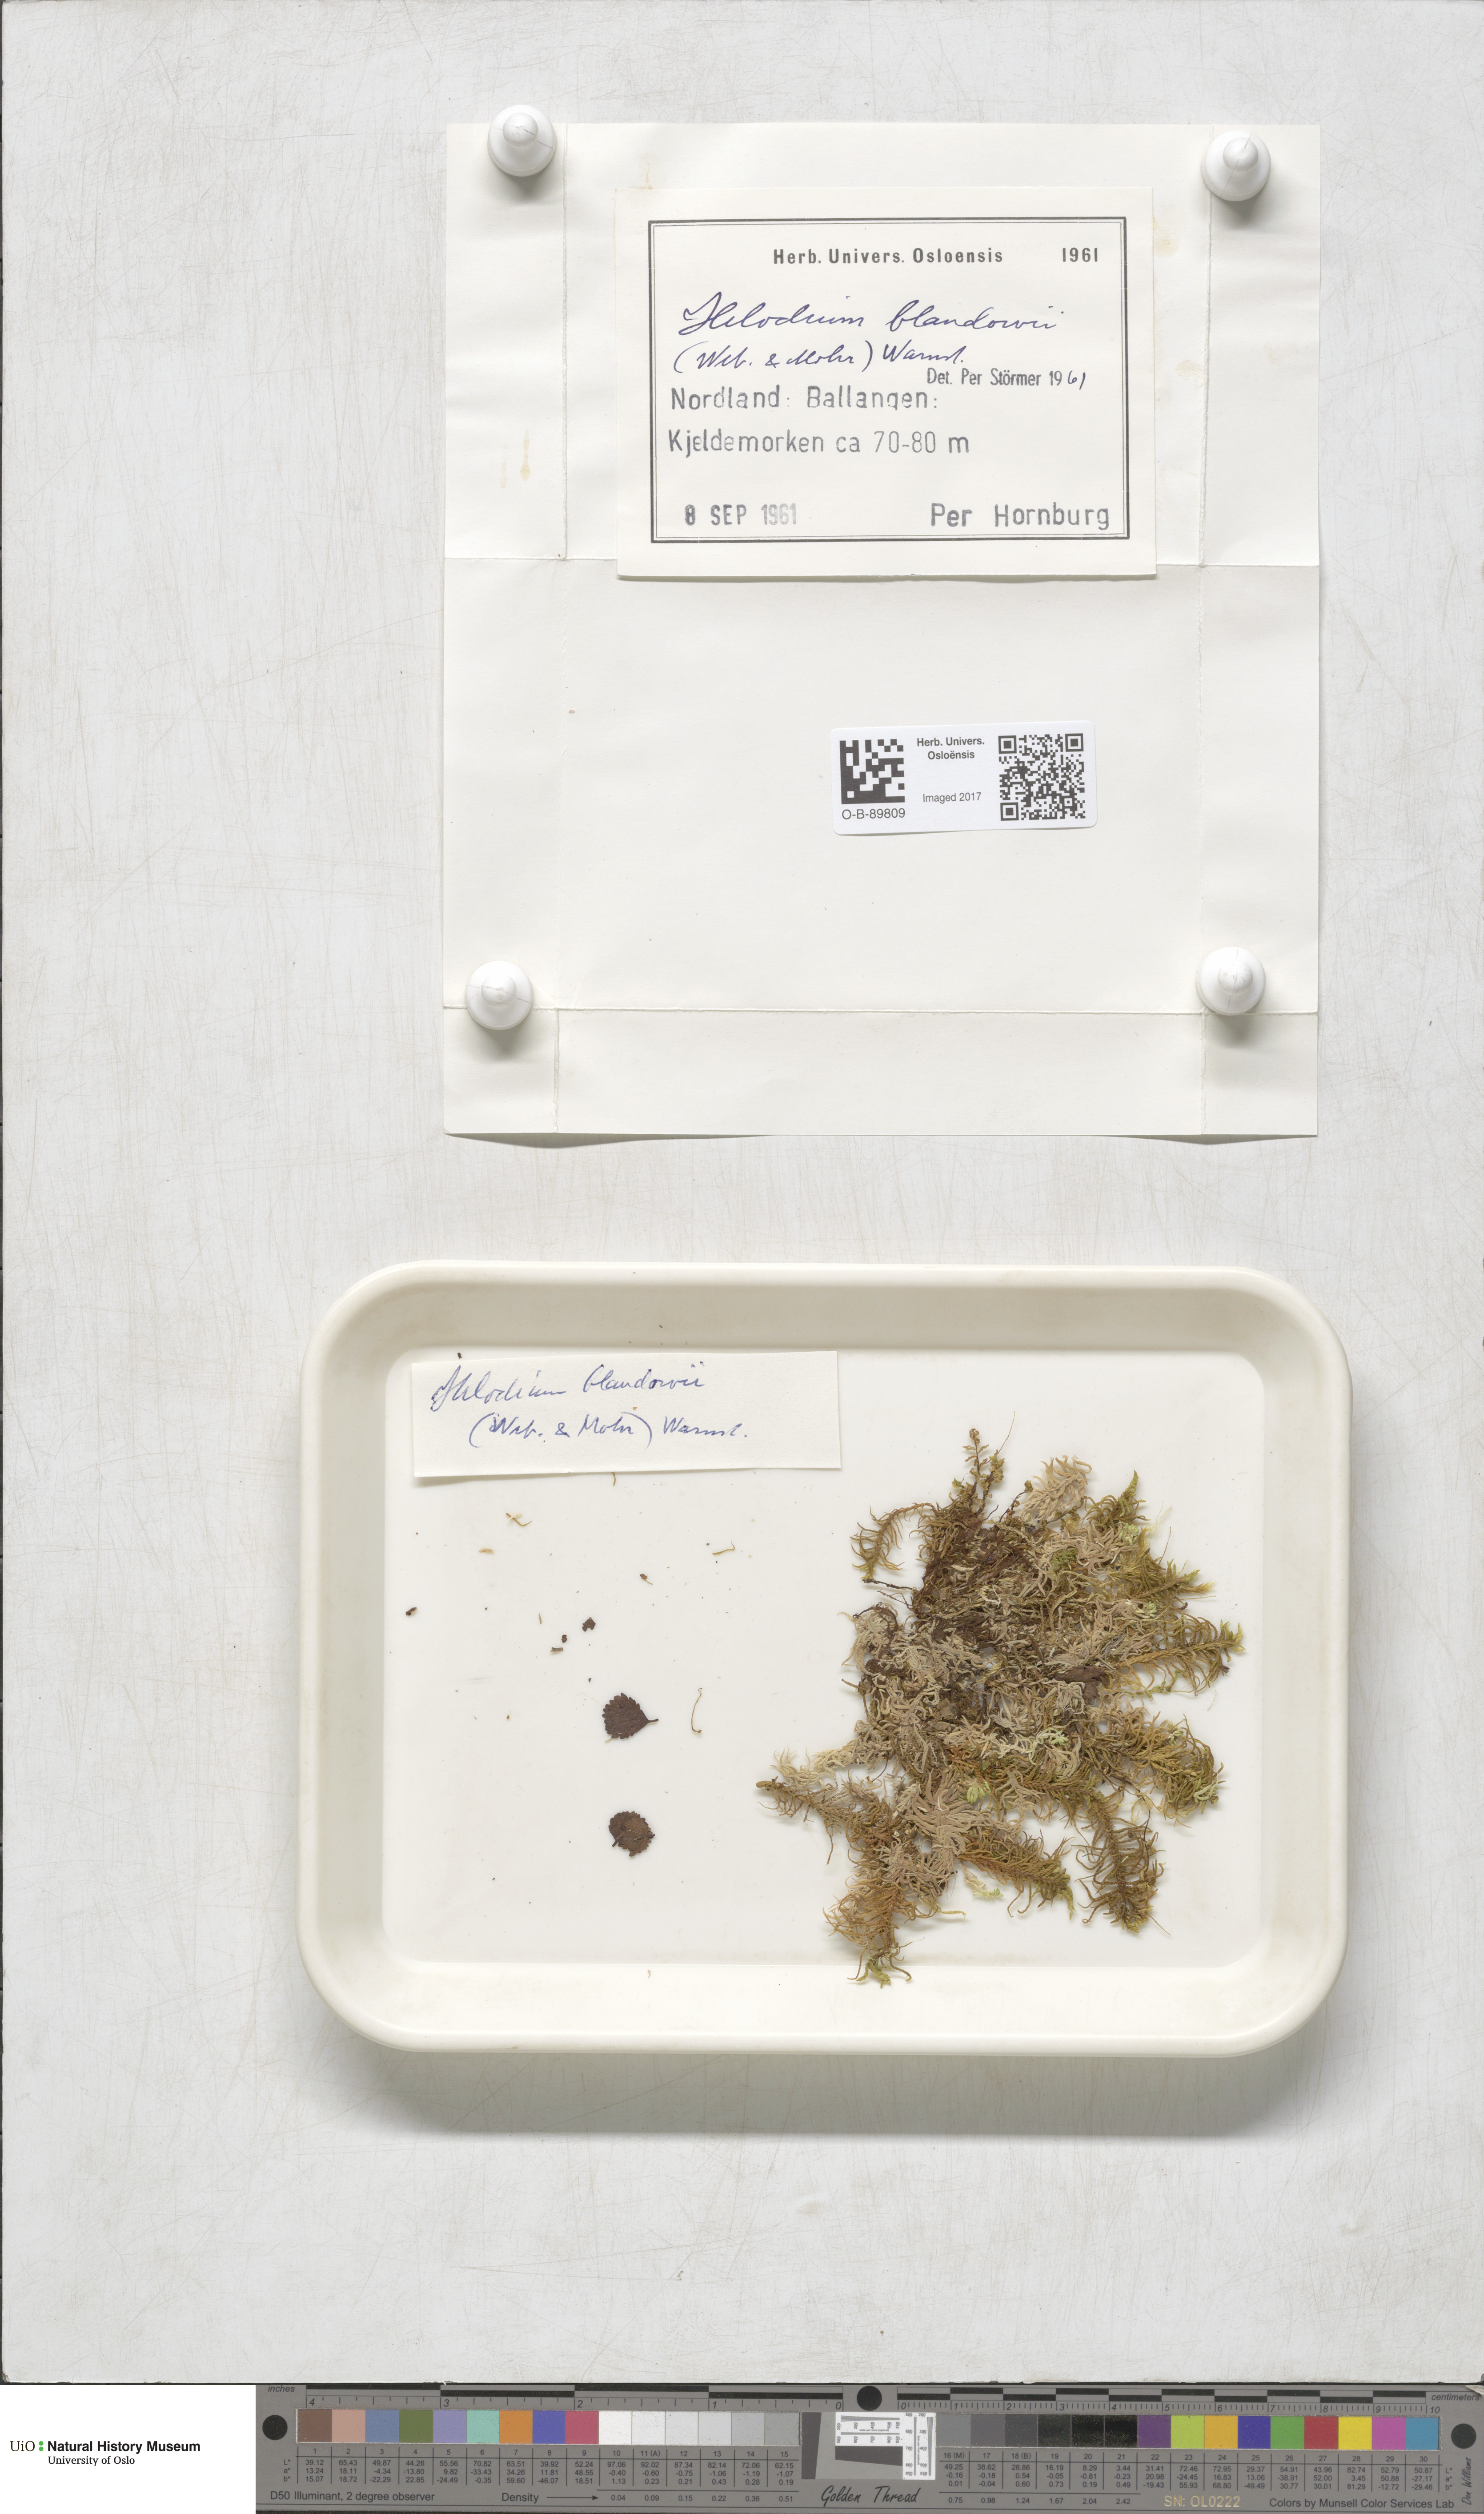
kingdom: Plantae
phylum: Bryophyta
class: Bryopsida
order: Hypnales
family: Helodiaceae
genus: Helodium
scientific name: Helodium blandowii
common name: Blandow's tamarisk-moss
